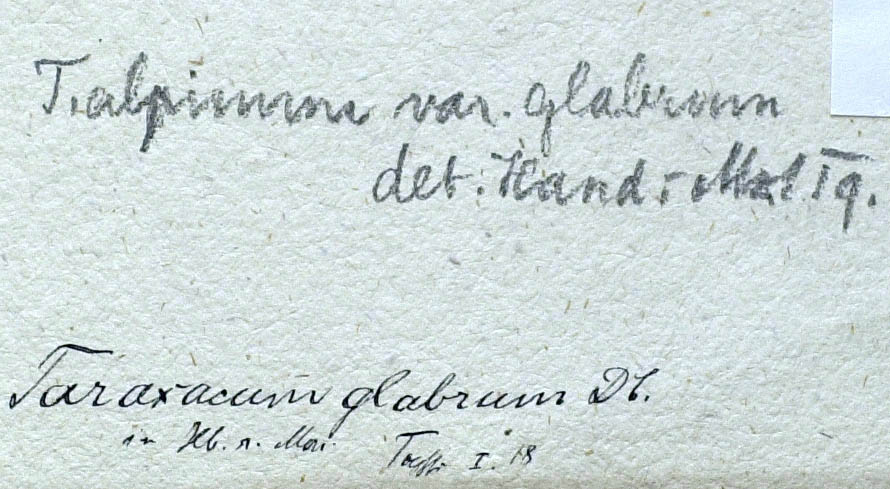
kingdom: Plantae
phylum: Tracheophyta
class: Magnoliopsida
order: Asterales
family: Asteraceae
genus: Taraxacum
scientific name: Taraxacum glabrum
